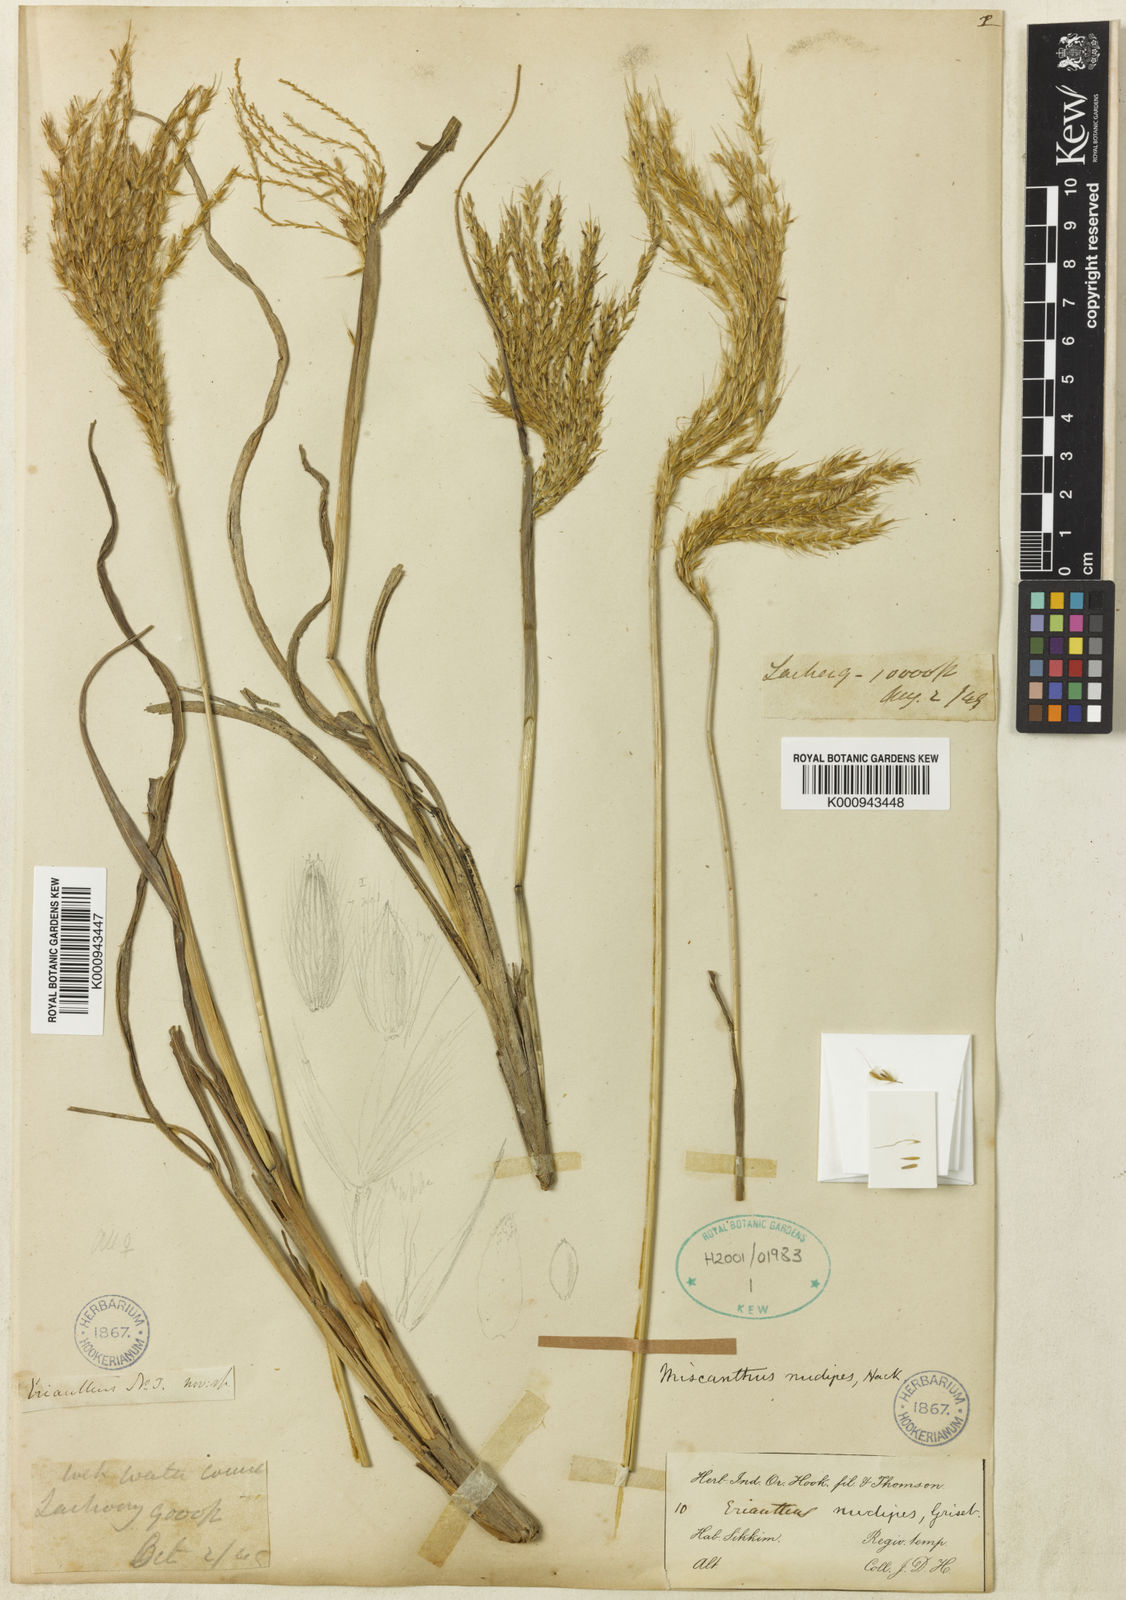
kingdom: Plantae
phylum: Tracheophyta
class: Liliopsida
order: Poales
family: Poaceae
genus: Miscanthus
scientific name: Miscanthus nudipes
